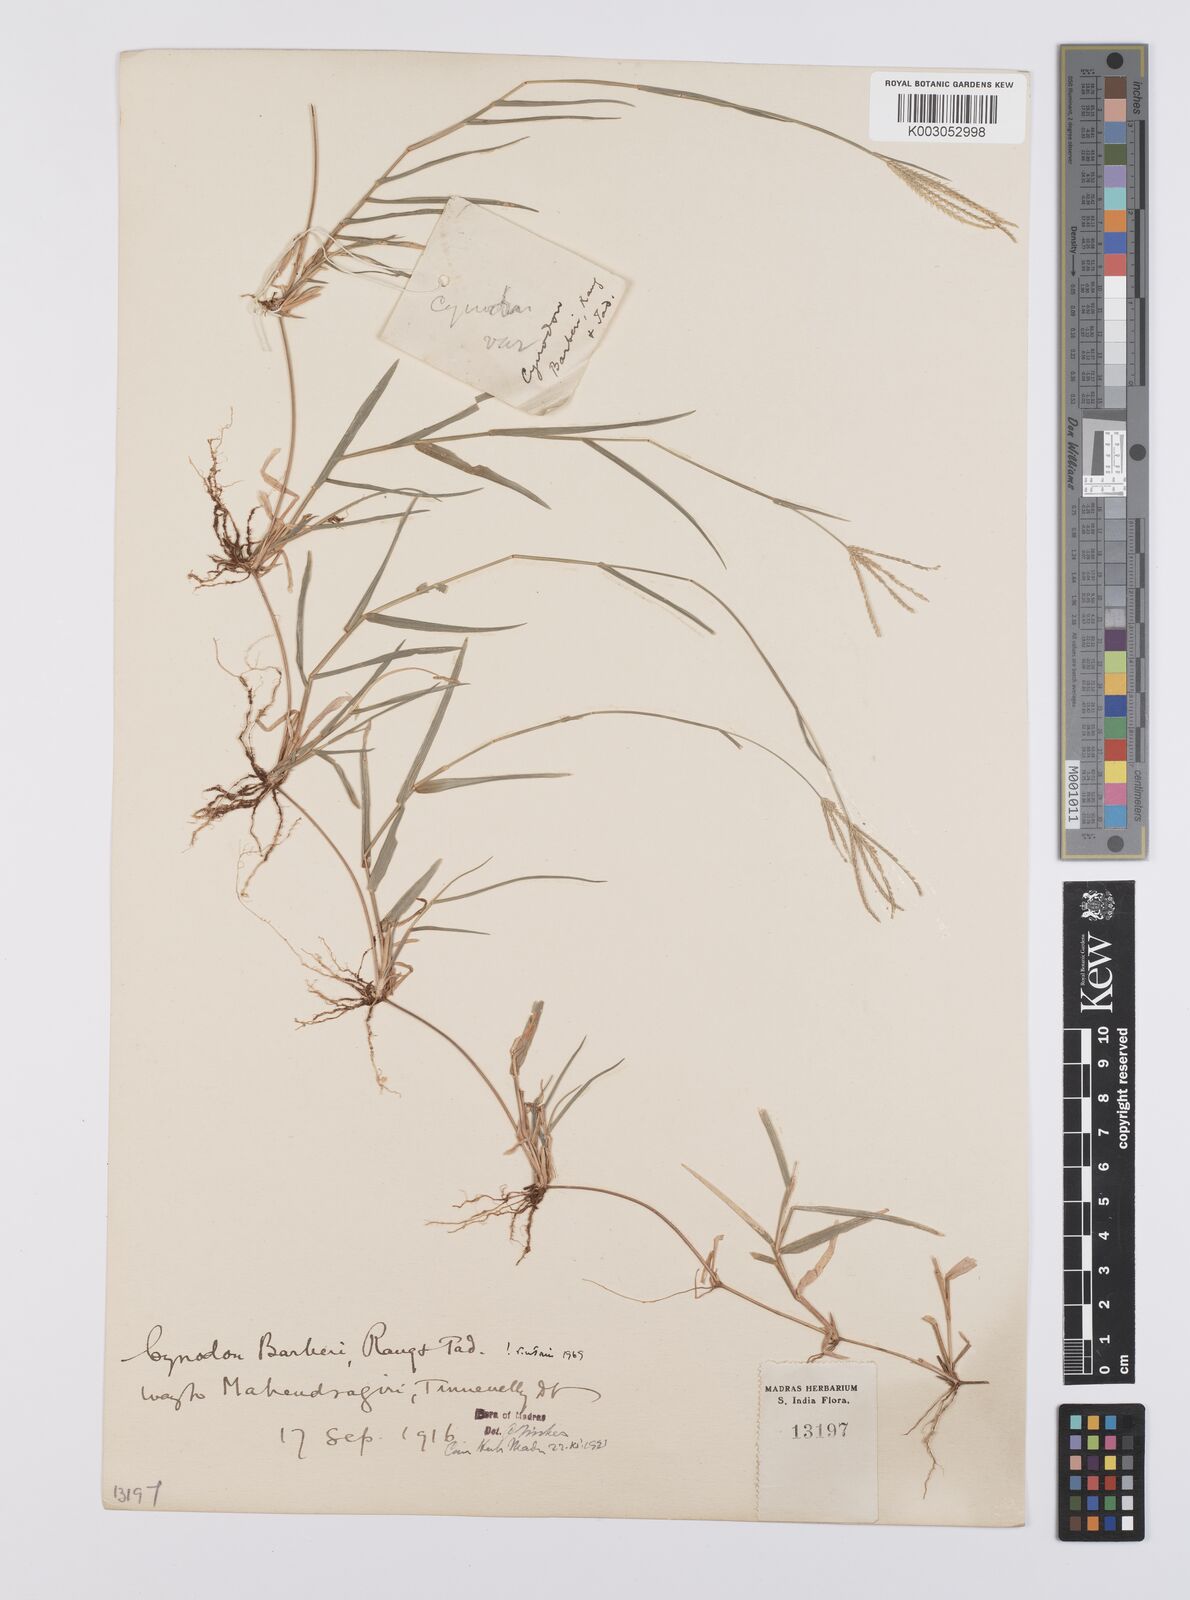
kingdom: Plantae
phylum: Tracheophyta
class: Liliopsida
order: Poales
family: Poaceae
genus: Cynodon
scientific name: Cynodon barberi
